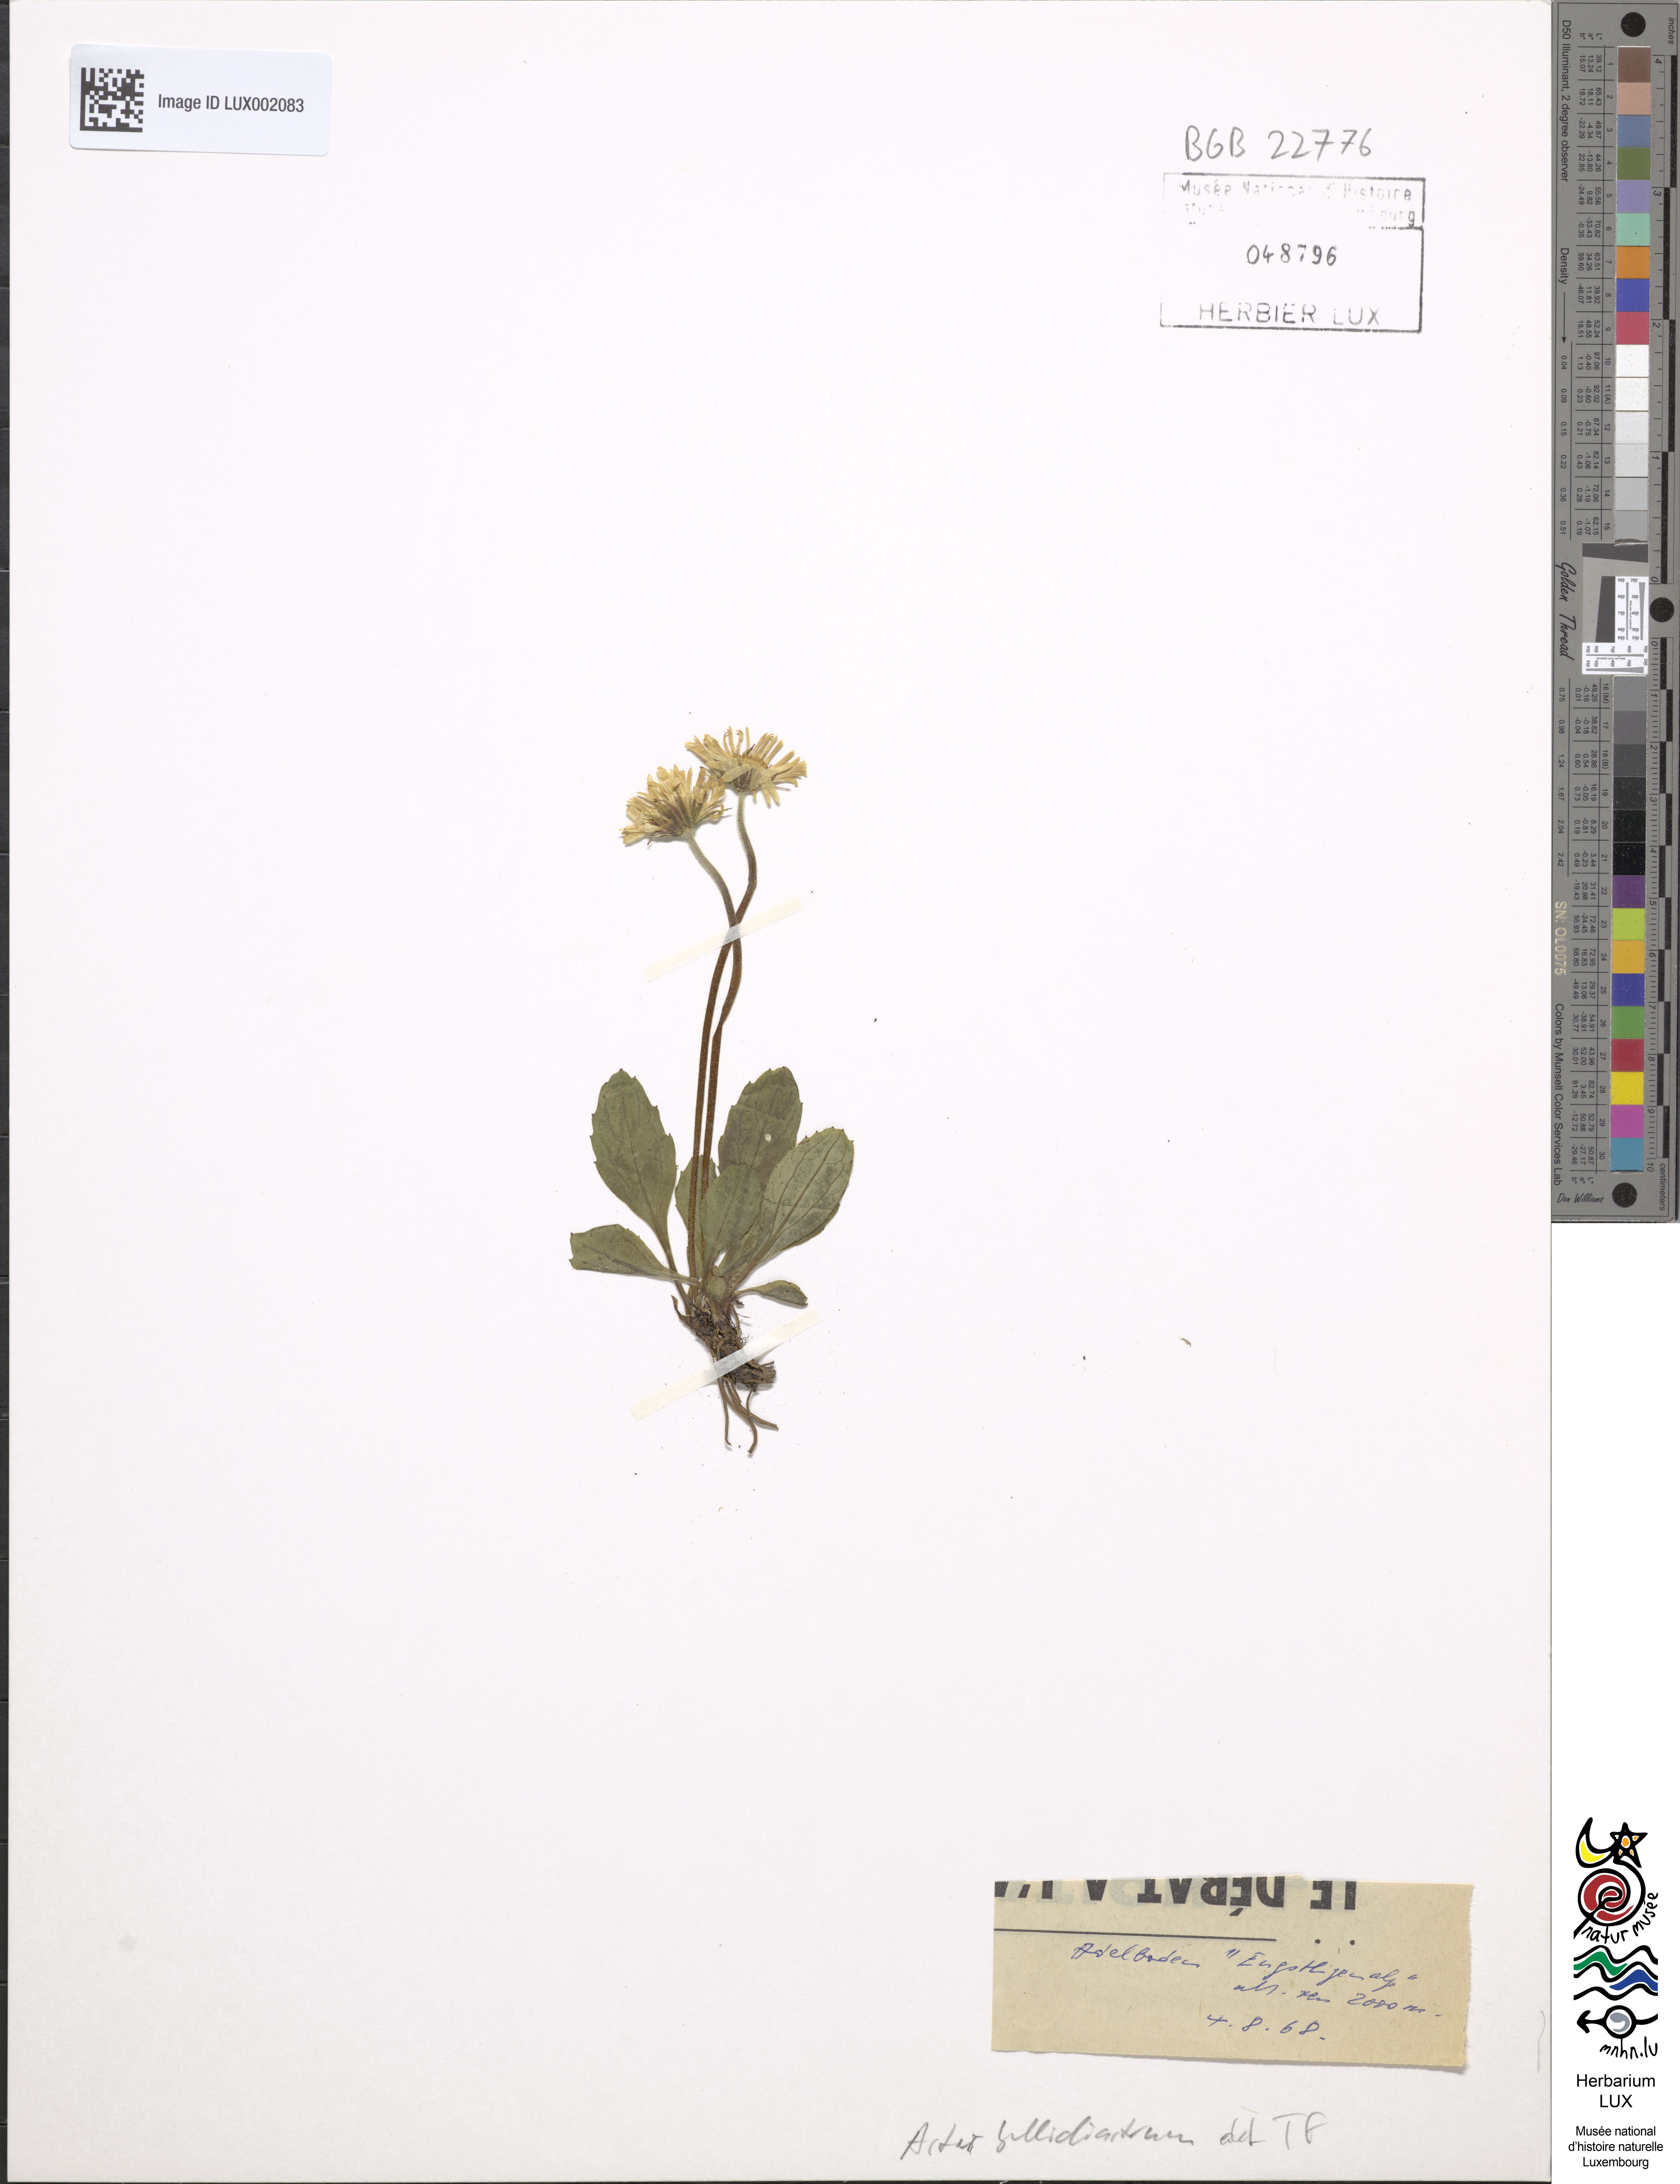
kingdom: Plantae
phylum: Tracheophyta
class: Magnoliopsida
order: Asterales
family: Asteraceae
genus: Bellidiastrum
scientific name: Bellidiastrum michelii
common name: Daisy-star aster
